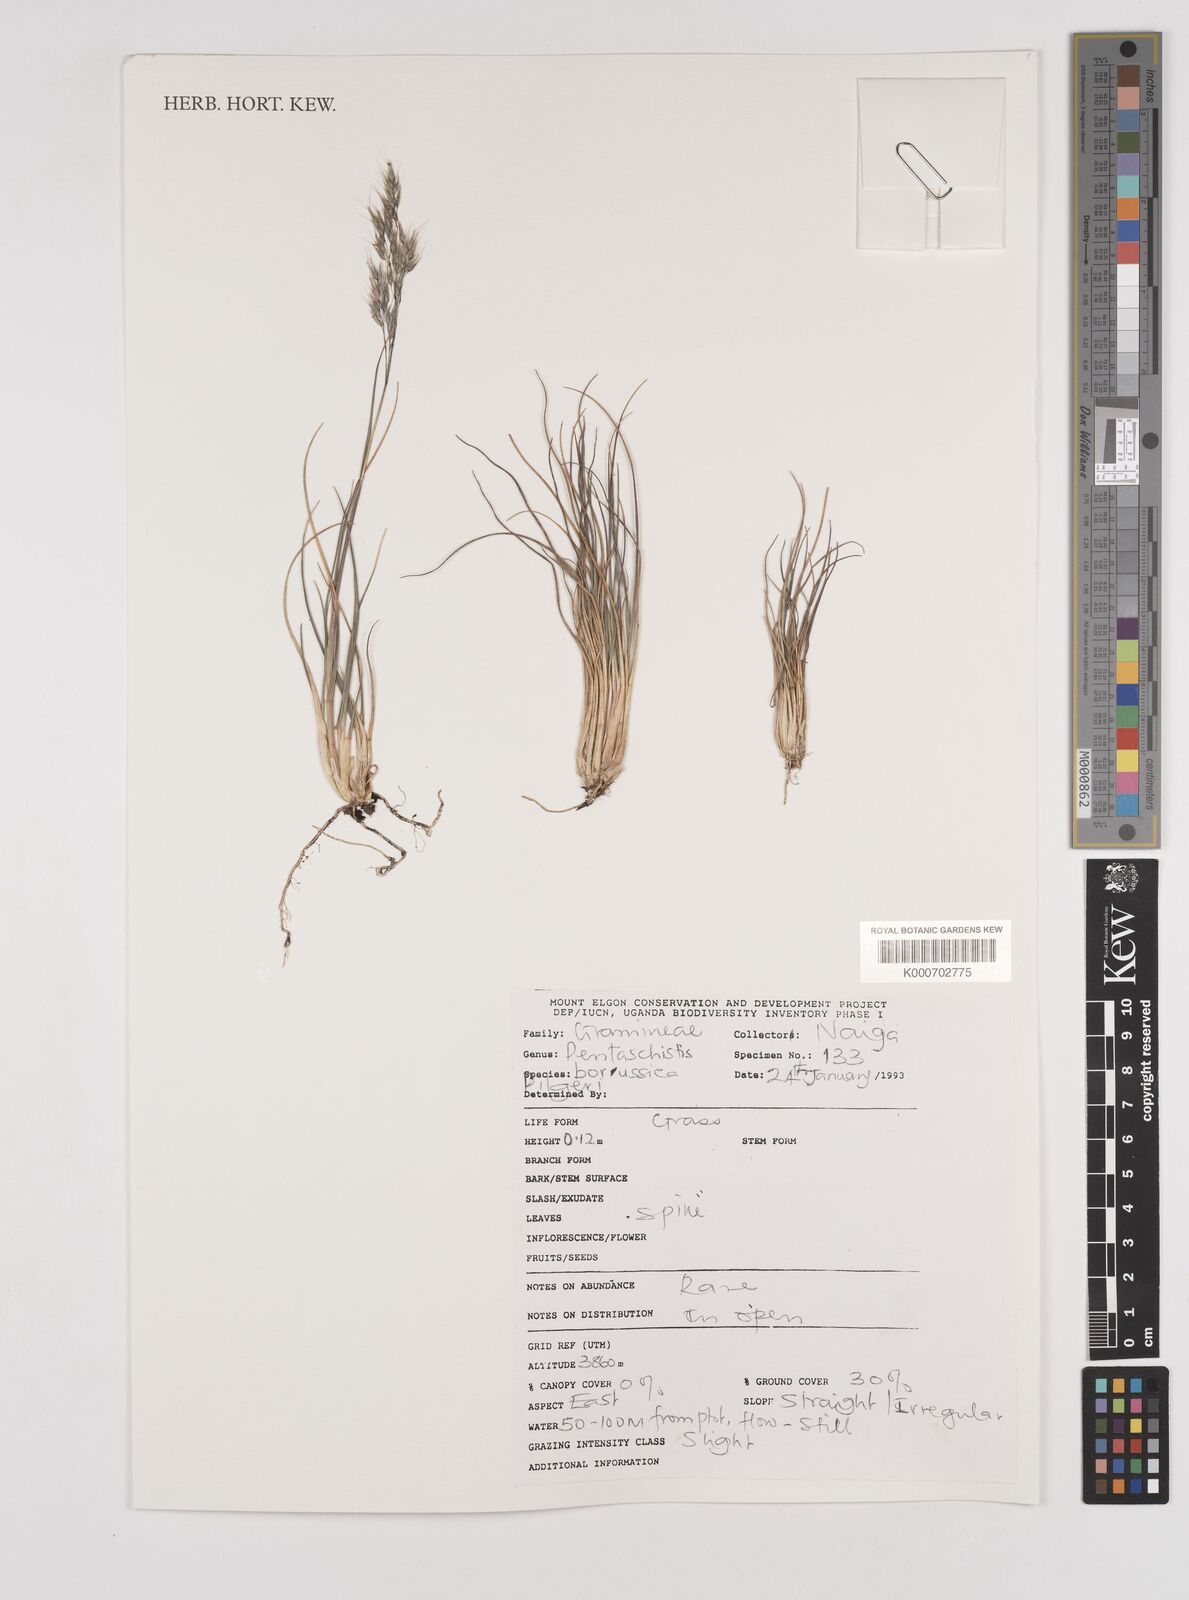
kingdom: Plantae
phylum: Tracheophyta
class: Liliopsida
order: Poales
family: Poaceae
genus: Pentameris
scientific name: Pentameris borussica
